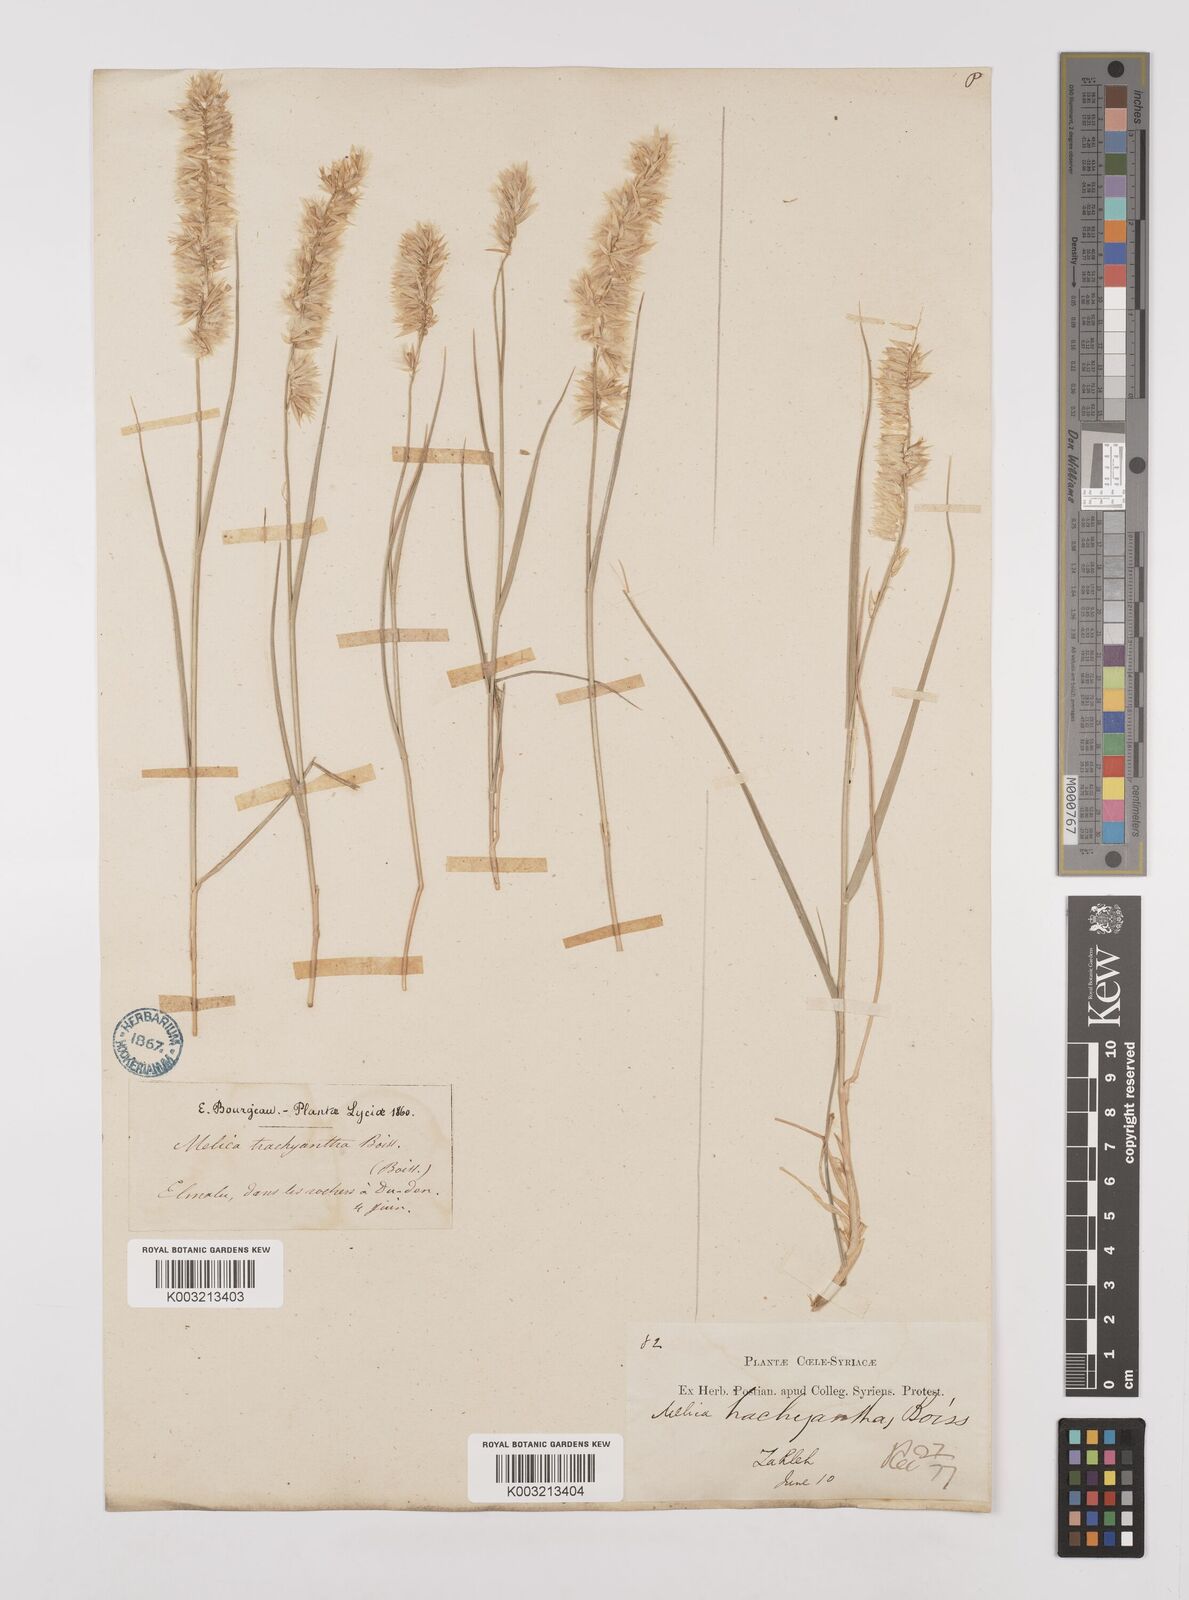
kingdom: Plantae
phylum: Tracheophyta
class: Liliopsida
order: Poales
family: Poaceae
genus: Melica
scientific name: Melica persica
